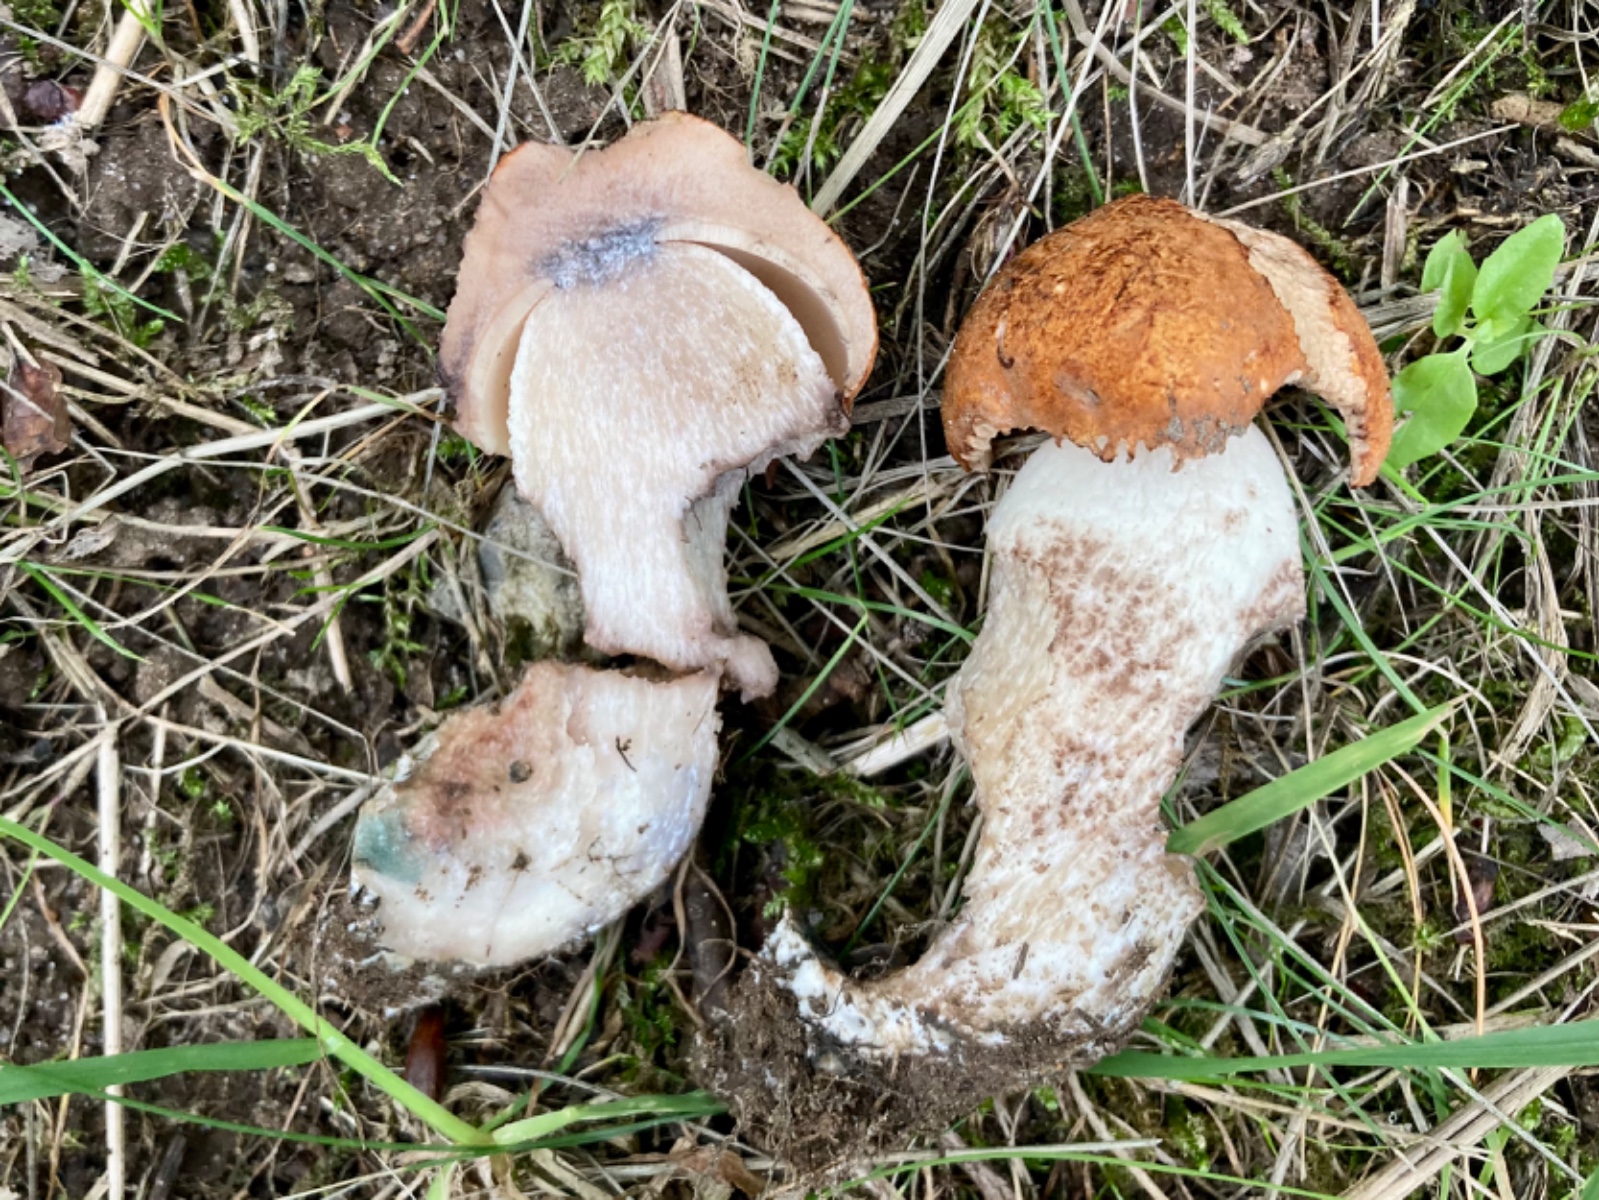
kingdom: Fungi
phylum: Basidiomycota
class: Agaricomycetes
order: Boletales
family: Boletaceae
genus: Leccinum
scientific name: Leccinum albostipitatum
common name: aspe-skælrørhat
